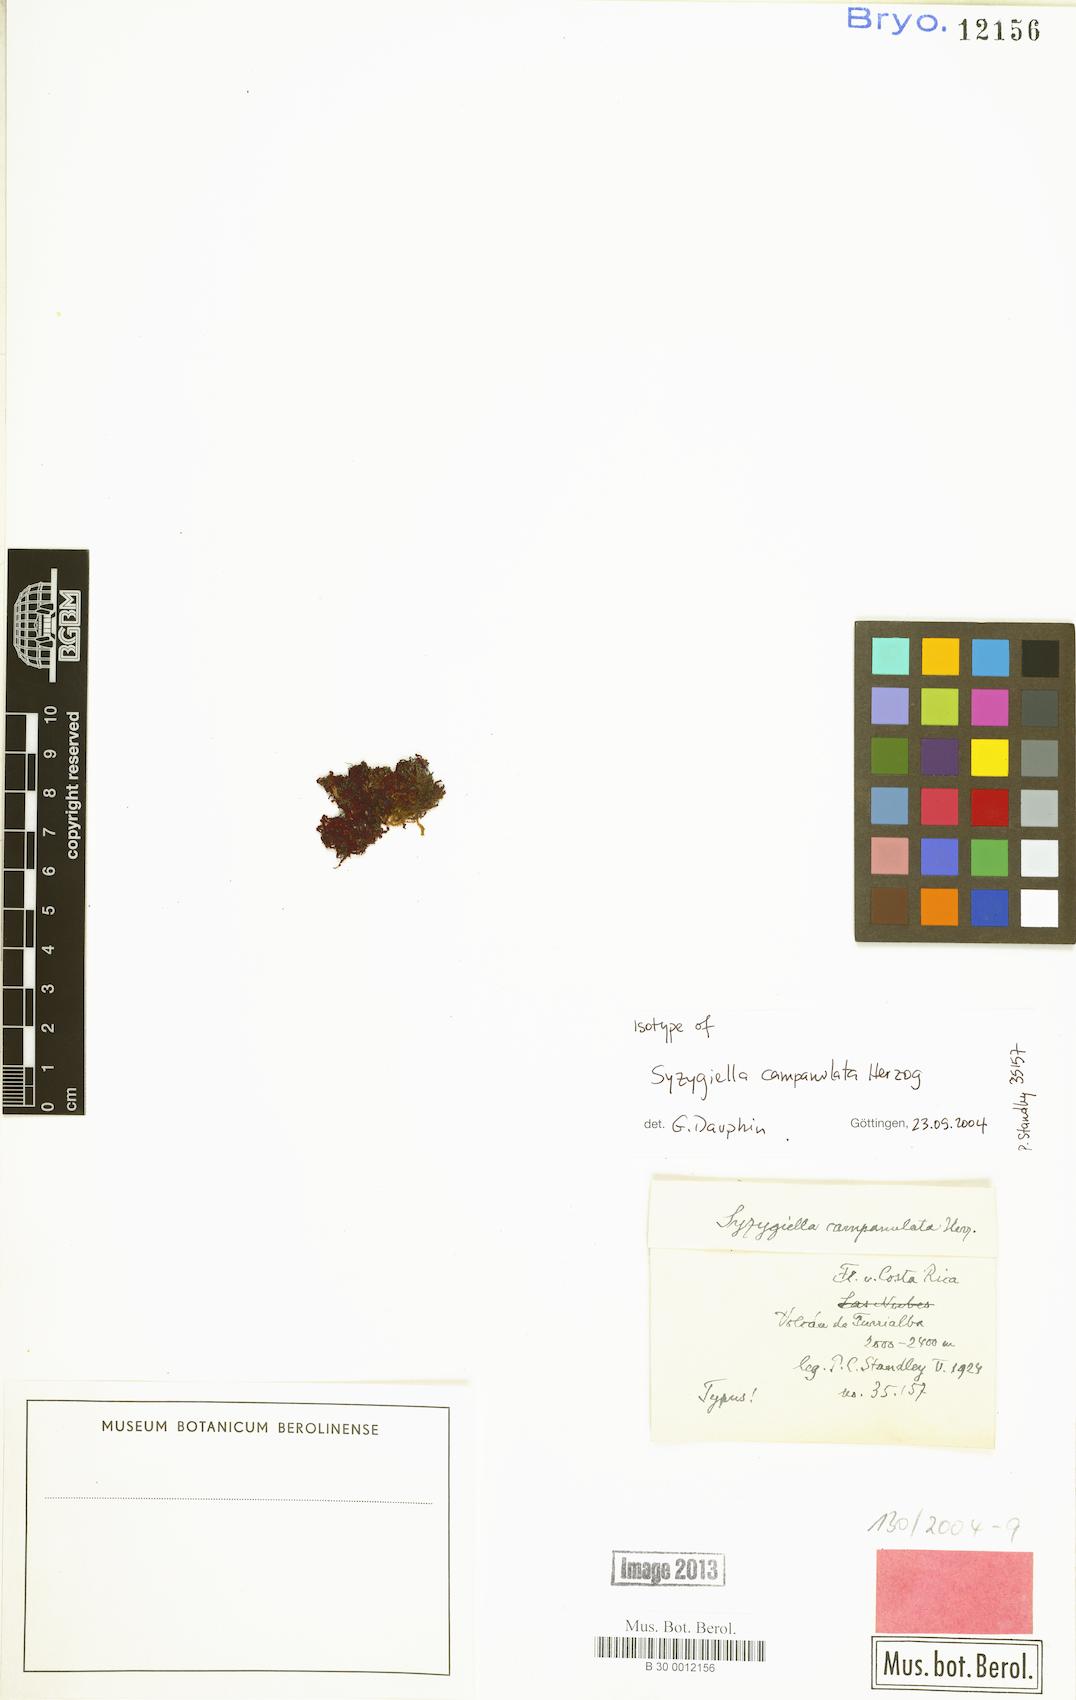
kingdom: Plantae
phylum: Marchantiophyta
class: Jungermanniopsida
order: Jungermanniales
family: Adelanthaceae
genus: Syzygiella
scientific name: Syzygiella campanulata
